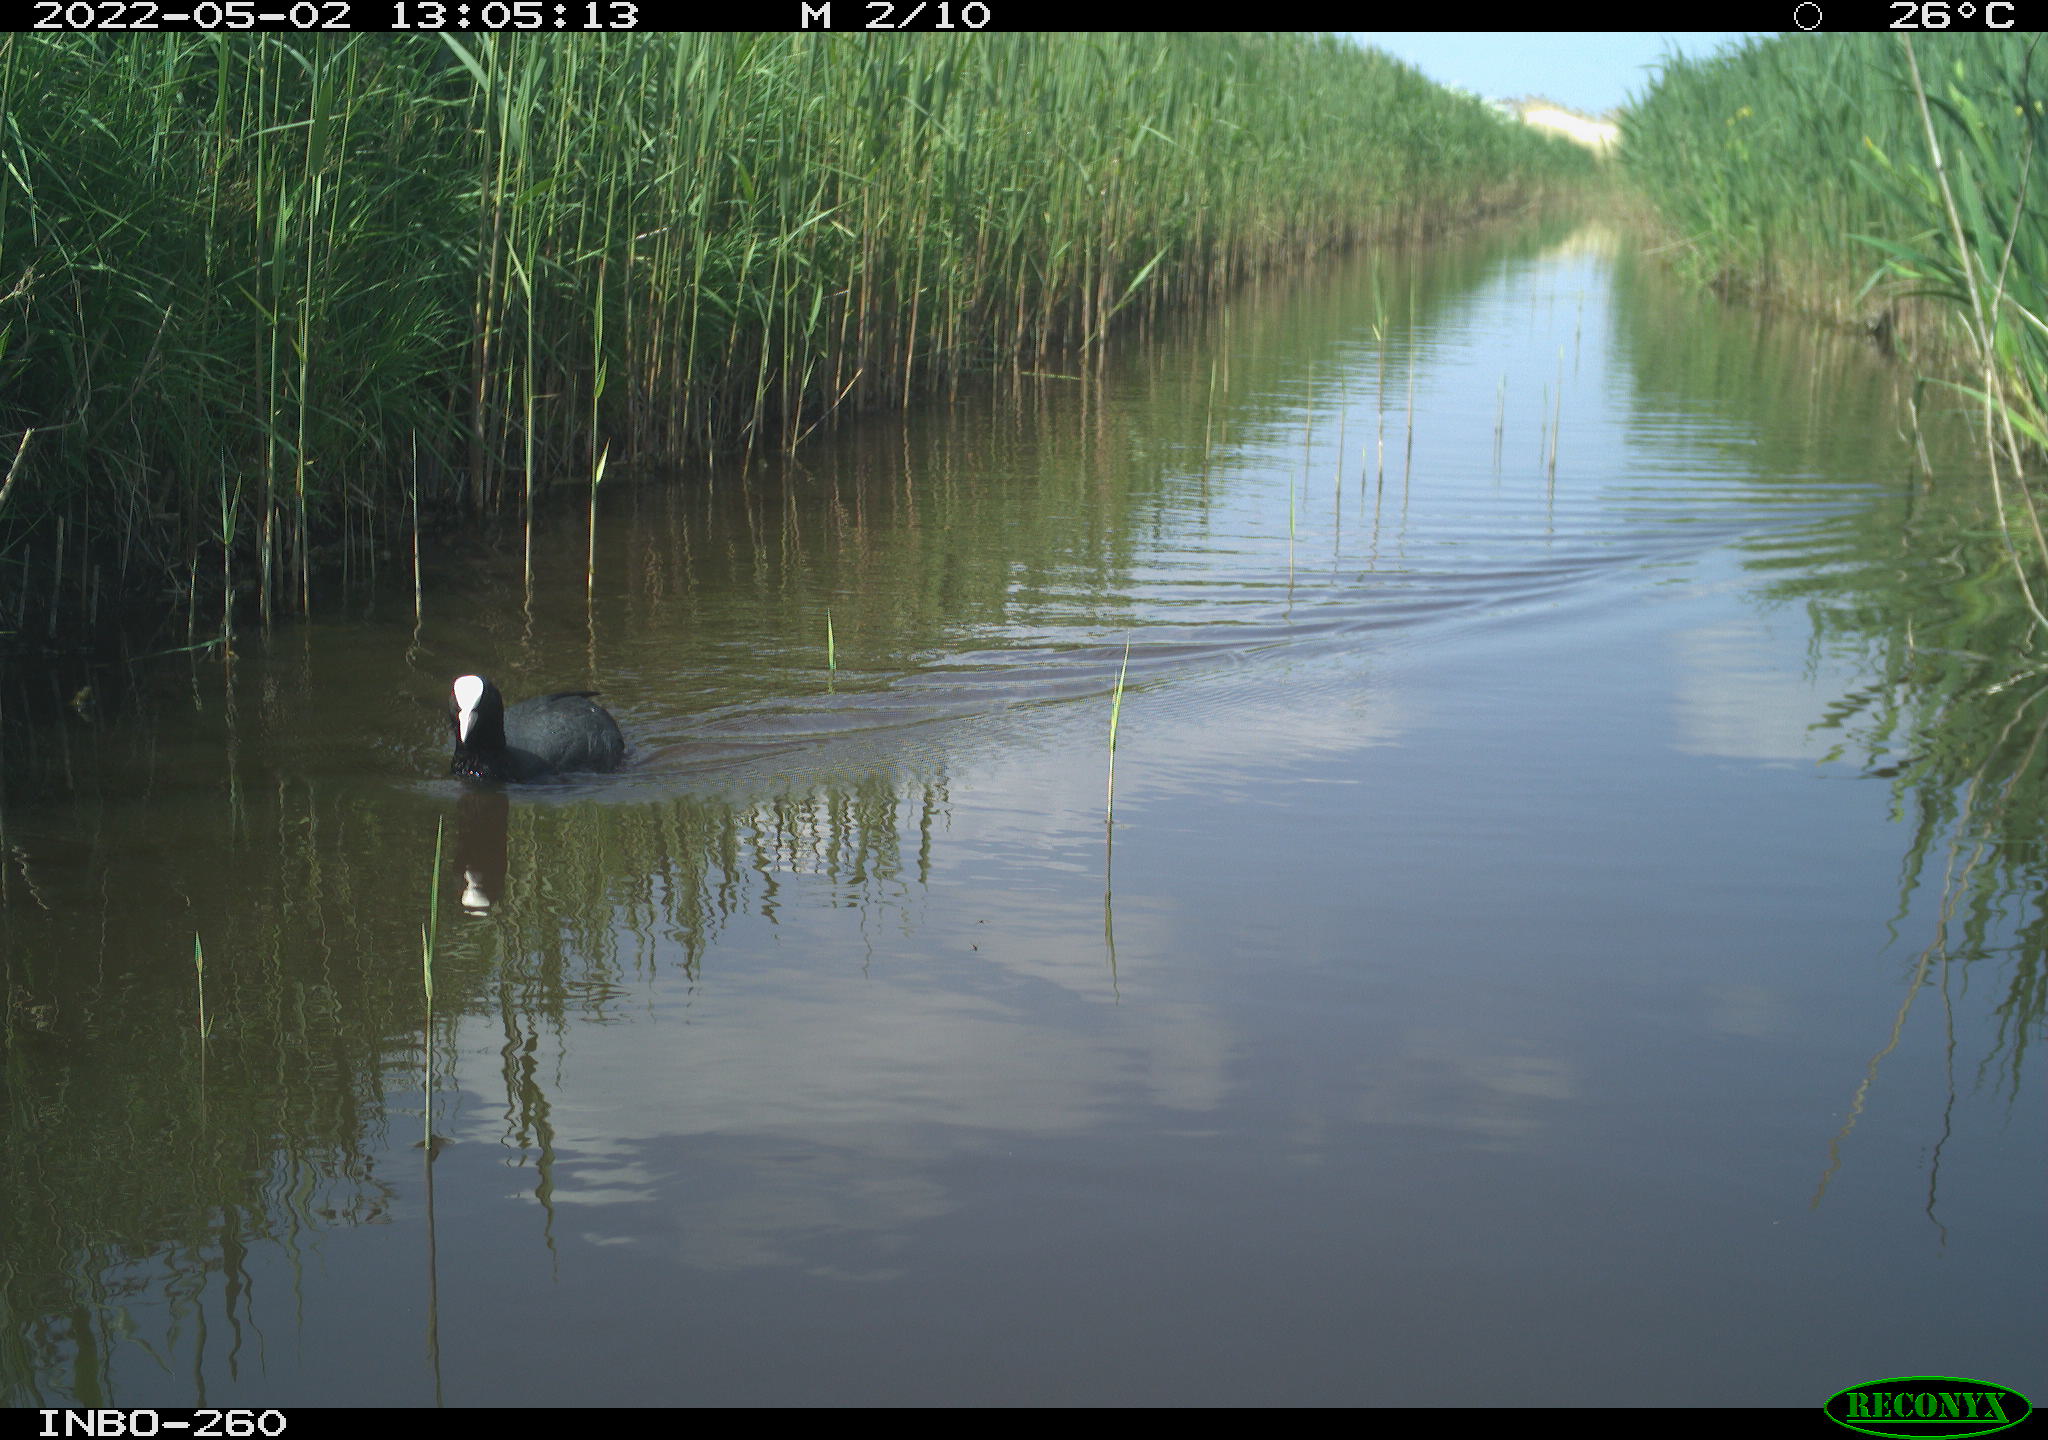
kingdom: Animalia
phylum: Chordata
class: Aves
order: Gruiformes
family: Rallidae
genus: Fulica
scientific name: Fulica atra
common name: Eurasian coot
